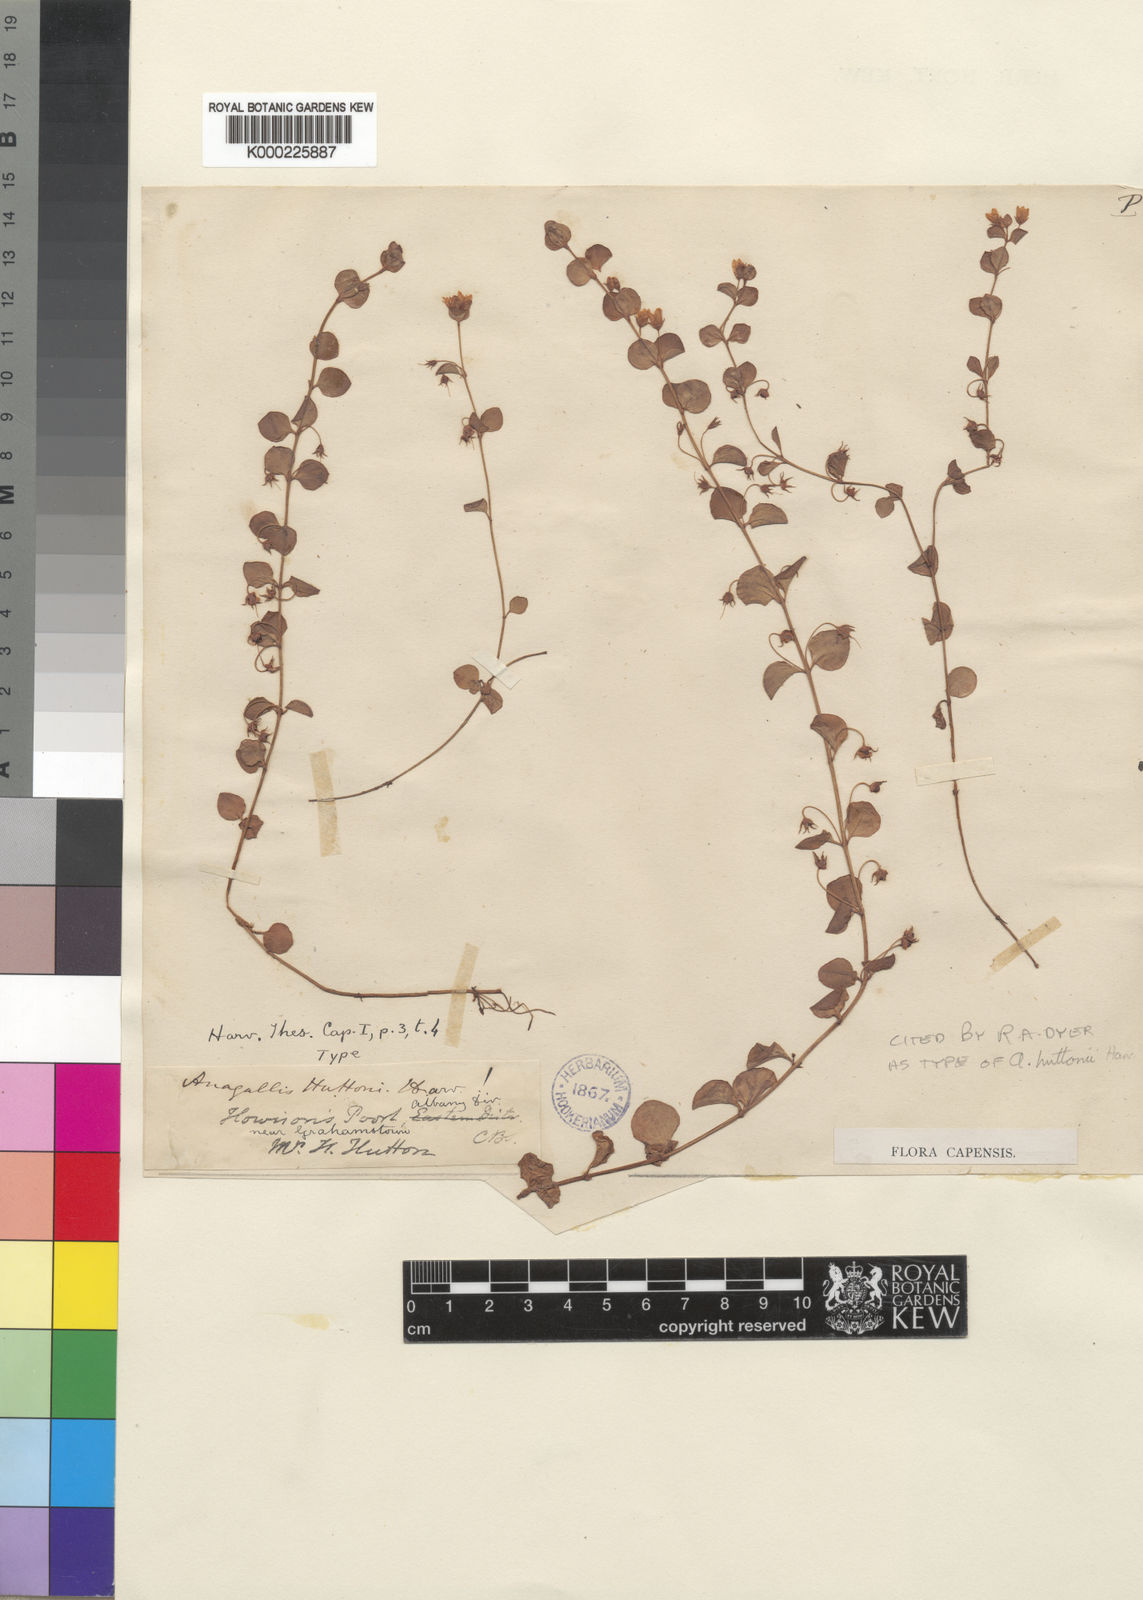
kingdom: Plantae
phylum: Tracheophyta
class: Magnoliopsida
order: Ericales
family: Primulaceae
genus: Lysimachia
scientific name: Lysimachia huttonii
